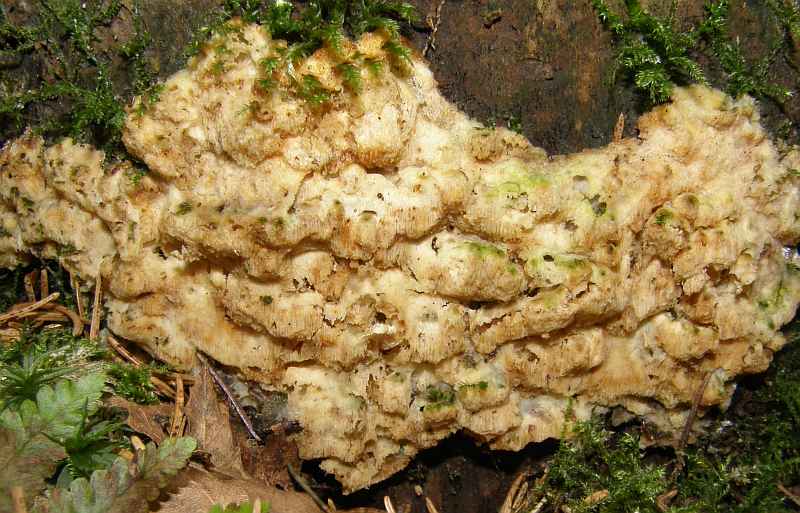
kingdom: Fungi
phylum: Basidiomycota
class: Agaricomycetes
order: Polyporales
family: Meruliaceae
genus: Physisporinus
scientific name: Physisporinus vitreus
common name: mastesvamp
